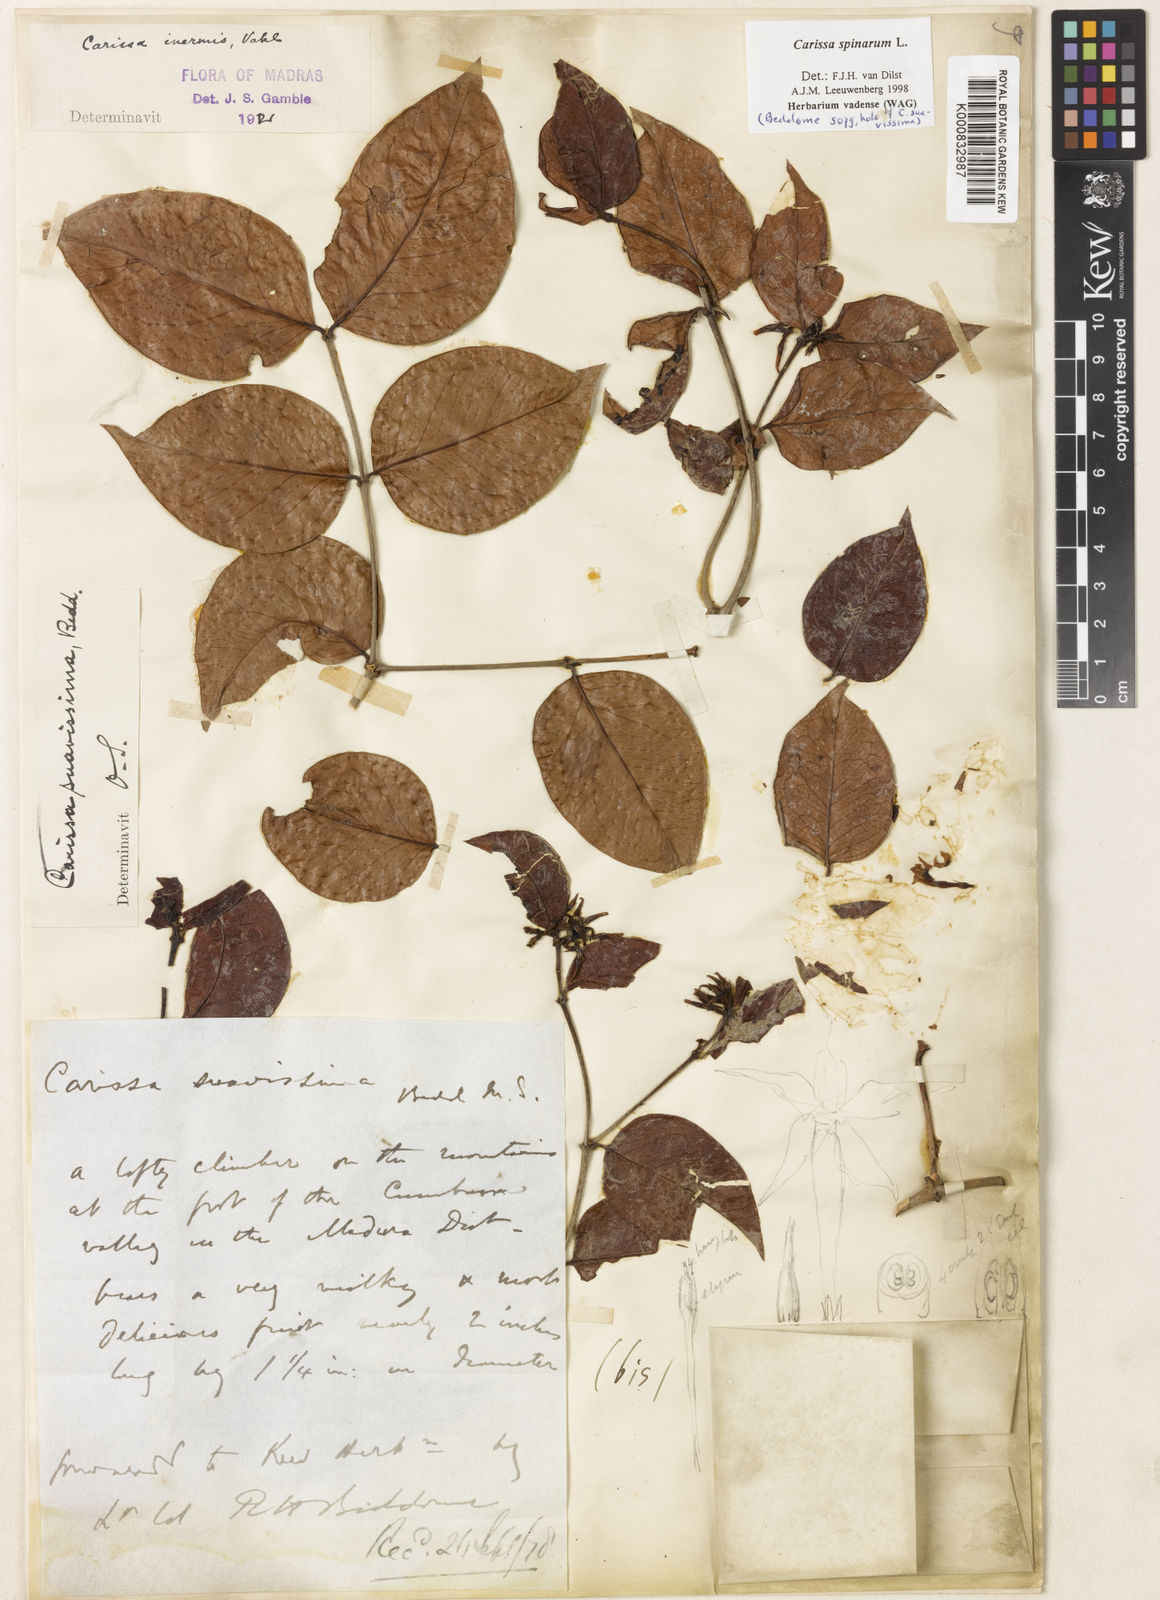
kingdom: Plantae
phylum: Tracheophyta
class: Magnoliopsida
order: Gentianales
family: Apocynaceae
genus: Carissa
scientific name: Carissa inermis
